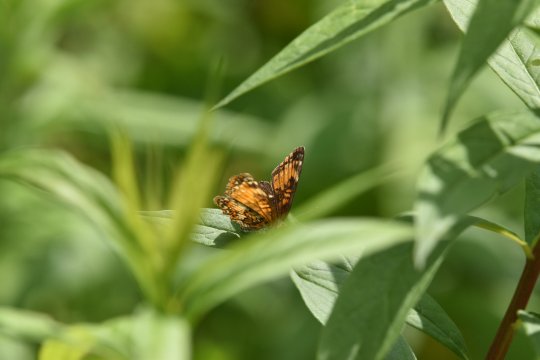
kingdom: Animalia
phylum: Arthropoda
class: Insecta
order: Lepidoptera
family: Nymphalidae
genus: Chlosyne
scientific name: Chlosyne harrisii
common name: Harris's Checkerspot
